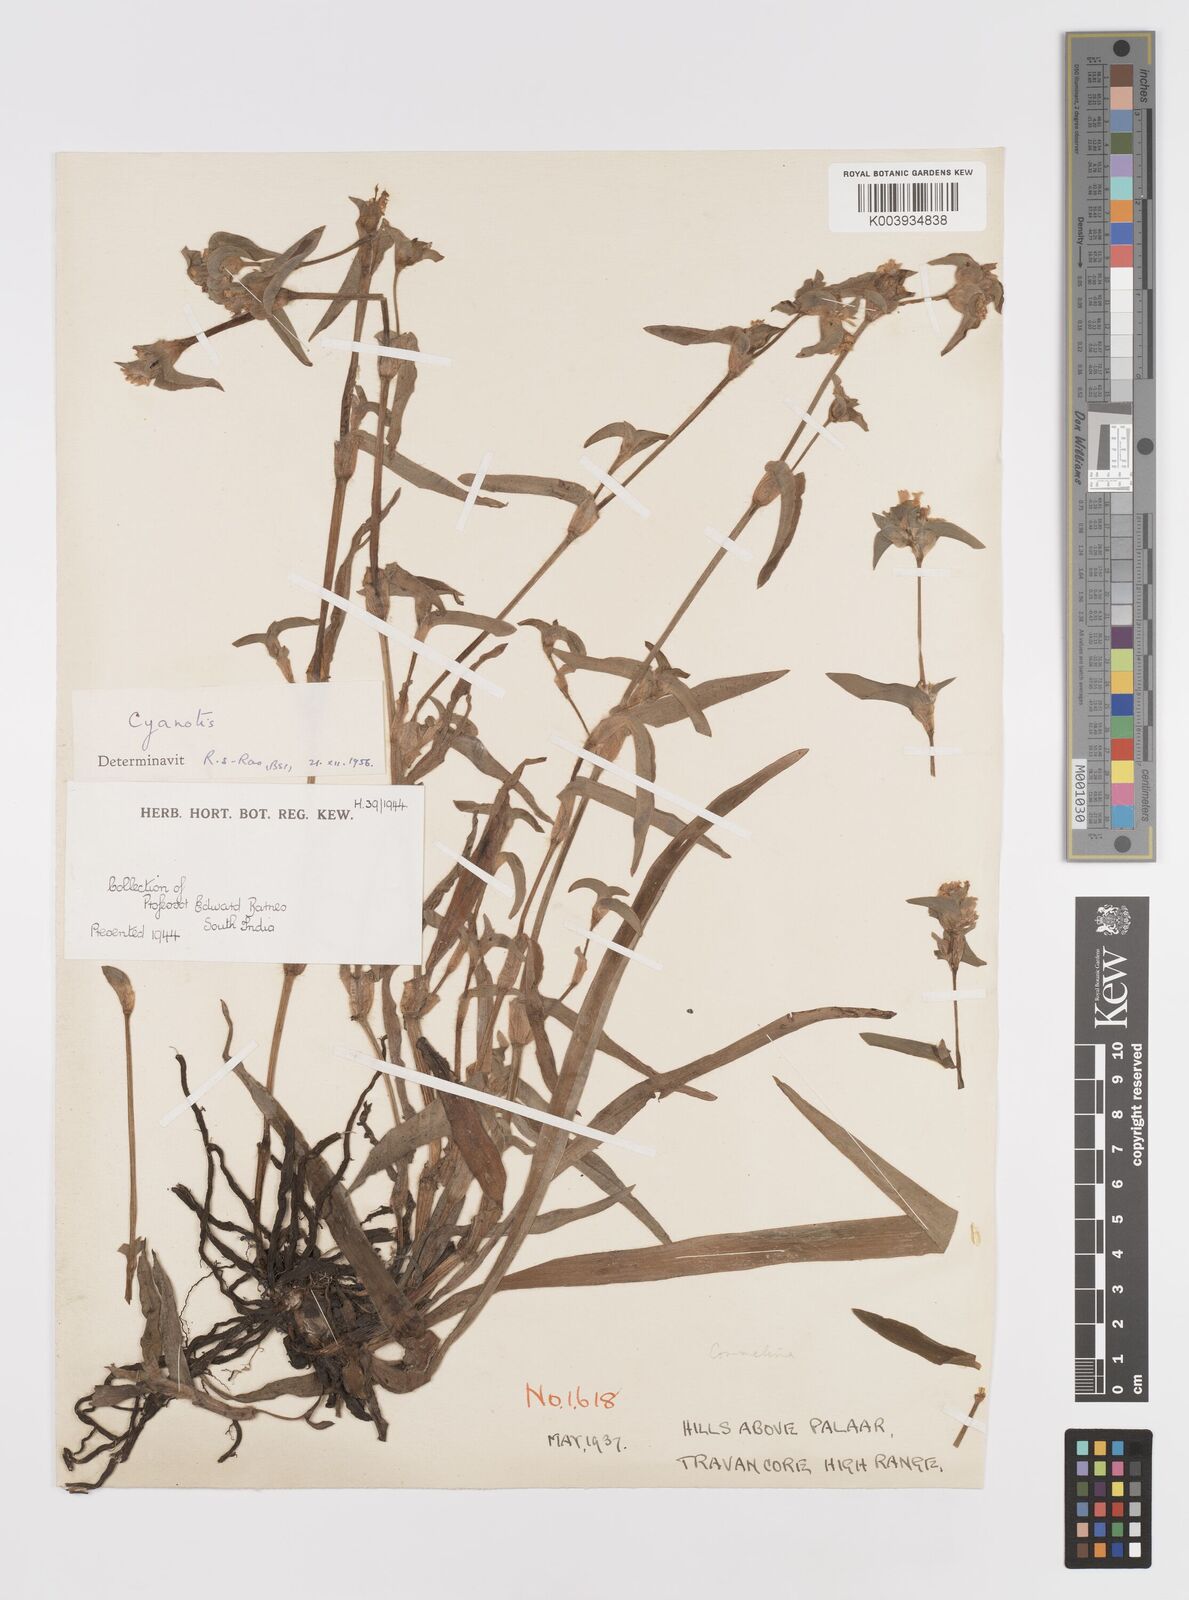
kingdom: Plantae
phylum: Tracheophyta
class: Liliopsida
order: Commelinales
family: Commelinaceae
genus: Cyanotis
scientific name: Cyanotis
